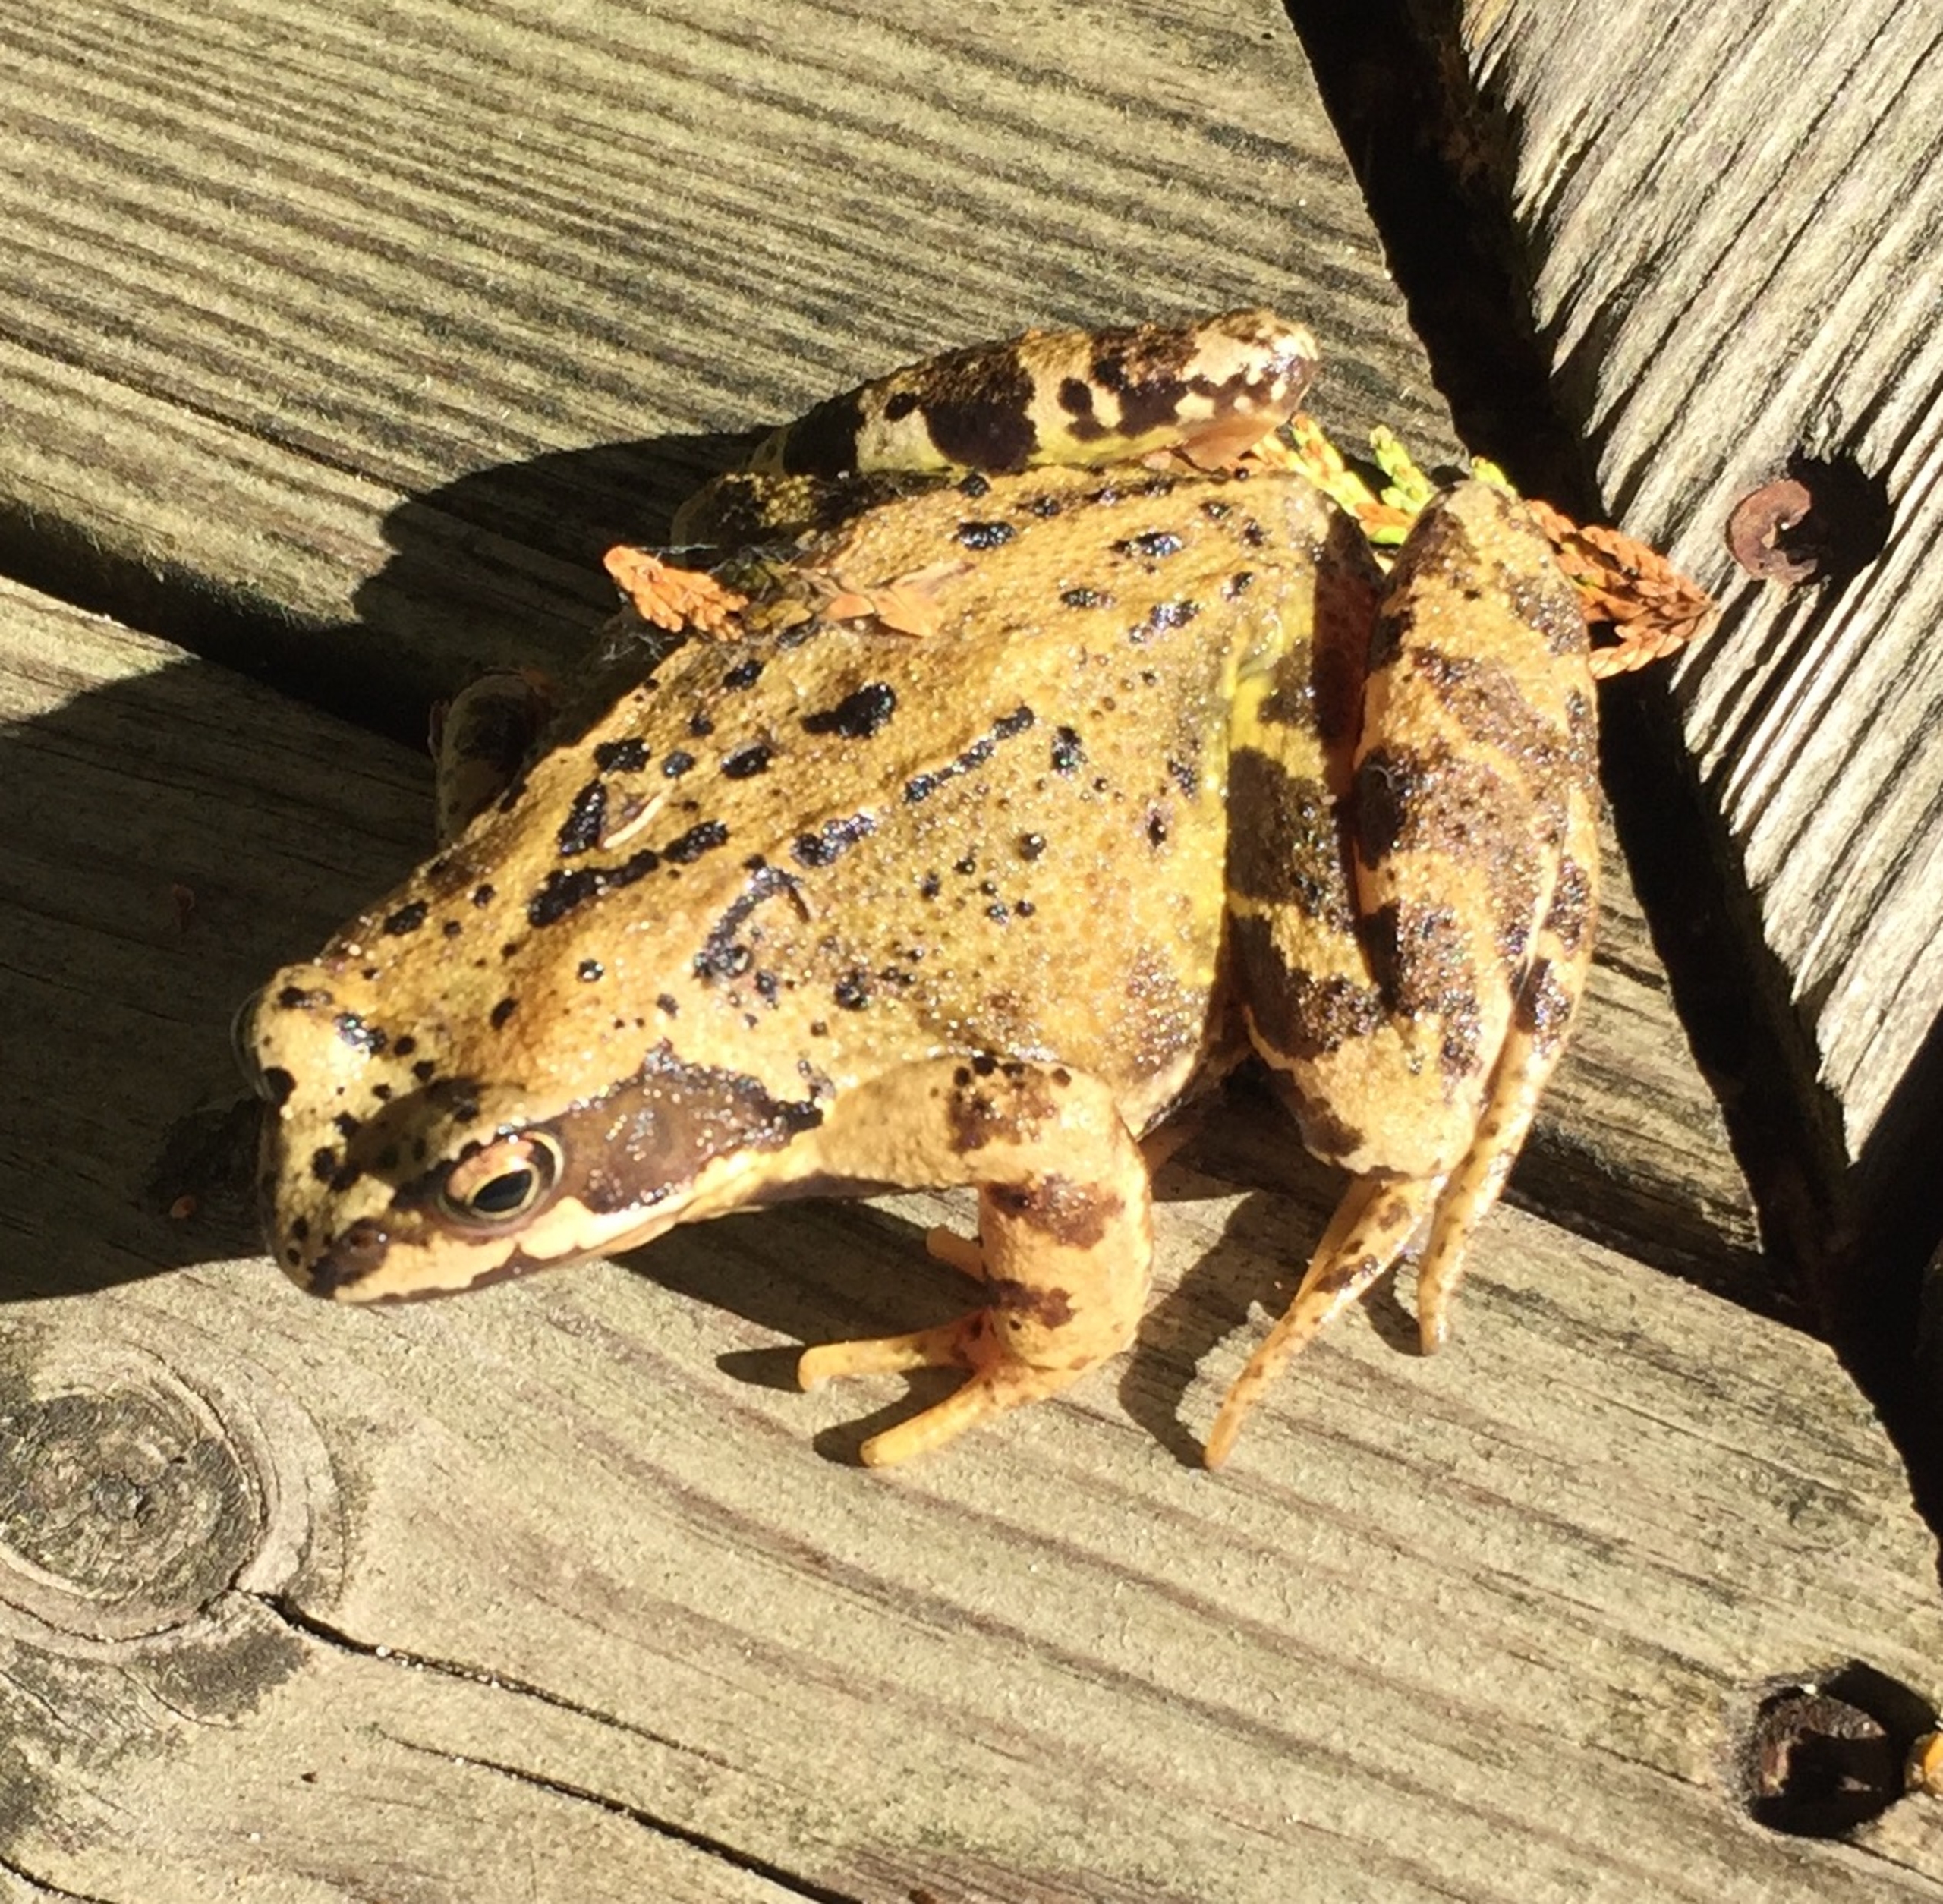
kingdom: Animalia
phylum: Chordata
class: Amphibia
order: Anura
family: Ranidae
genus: Rana
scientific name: Rana temporaria
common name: Butsnudet frø
